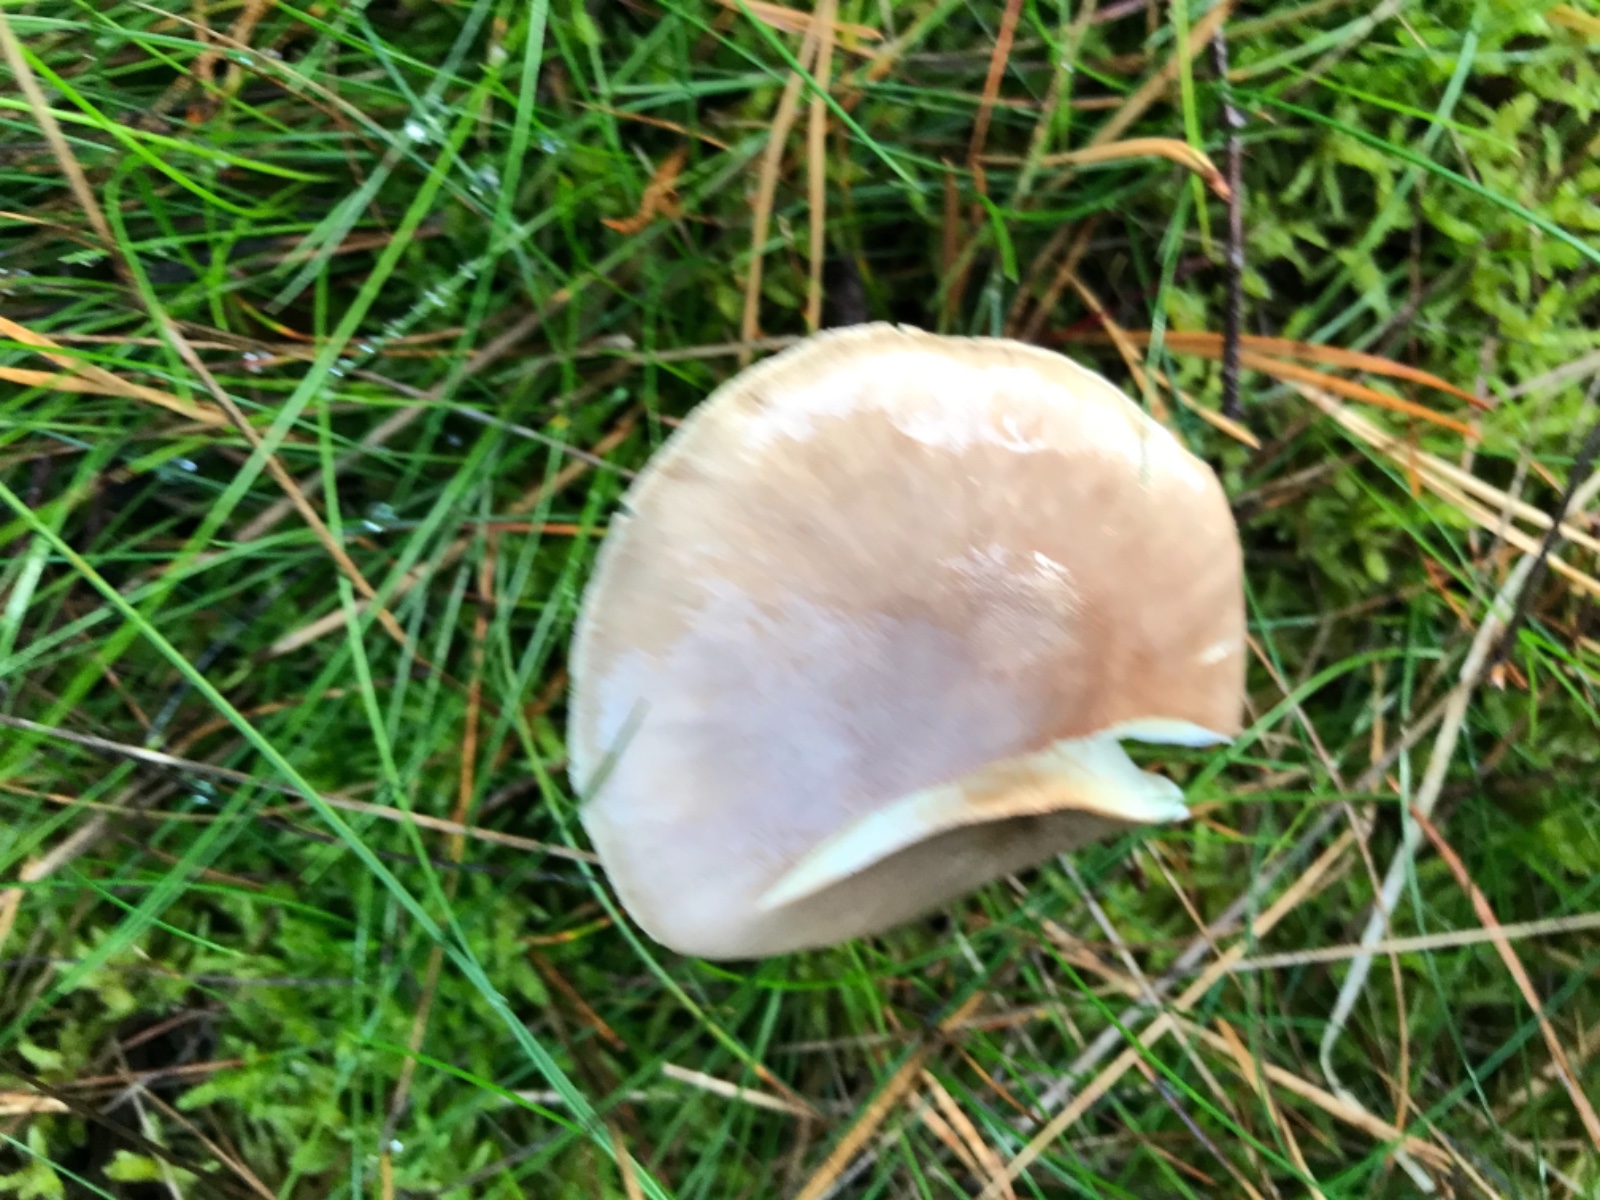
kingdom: Fungi
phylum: Basidiomycota
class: Agaricomycetes
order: Agaricales
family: Amanitaceae
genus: Amanita
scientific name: Amanita porphyria
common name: porfyr-fluesvamp
